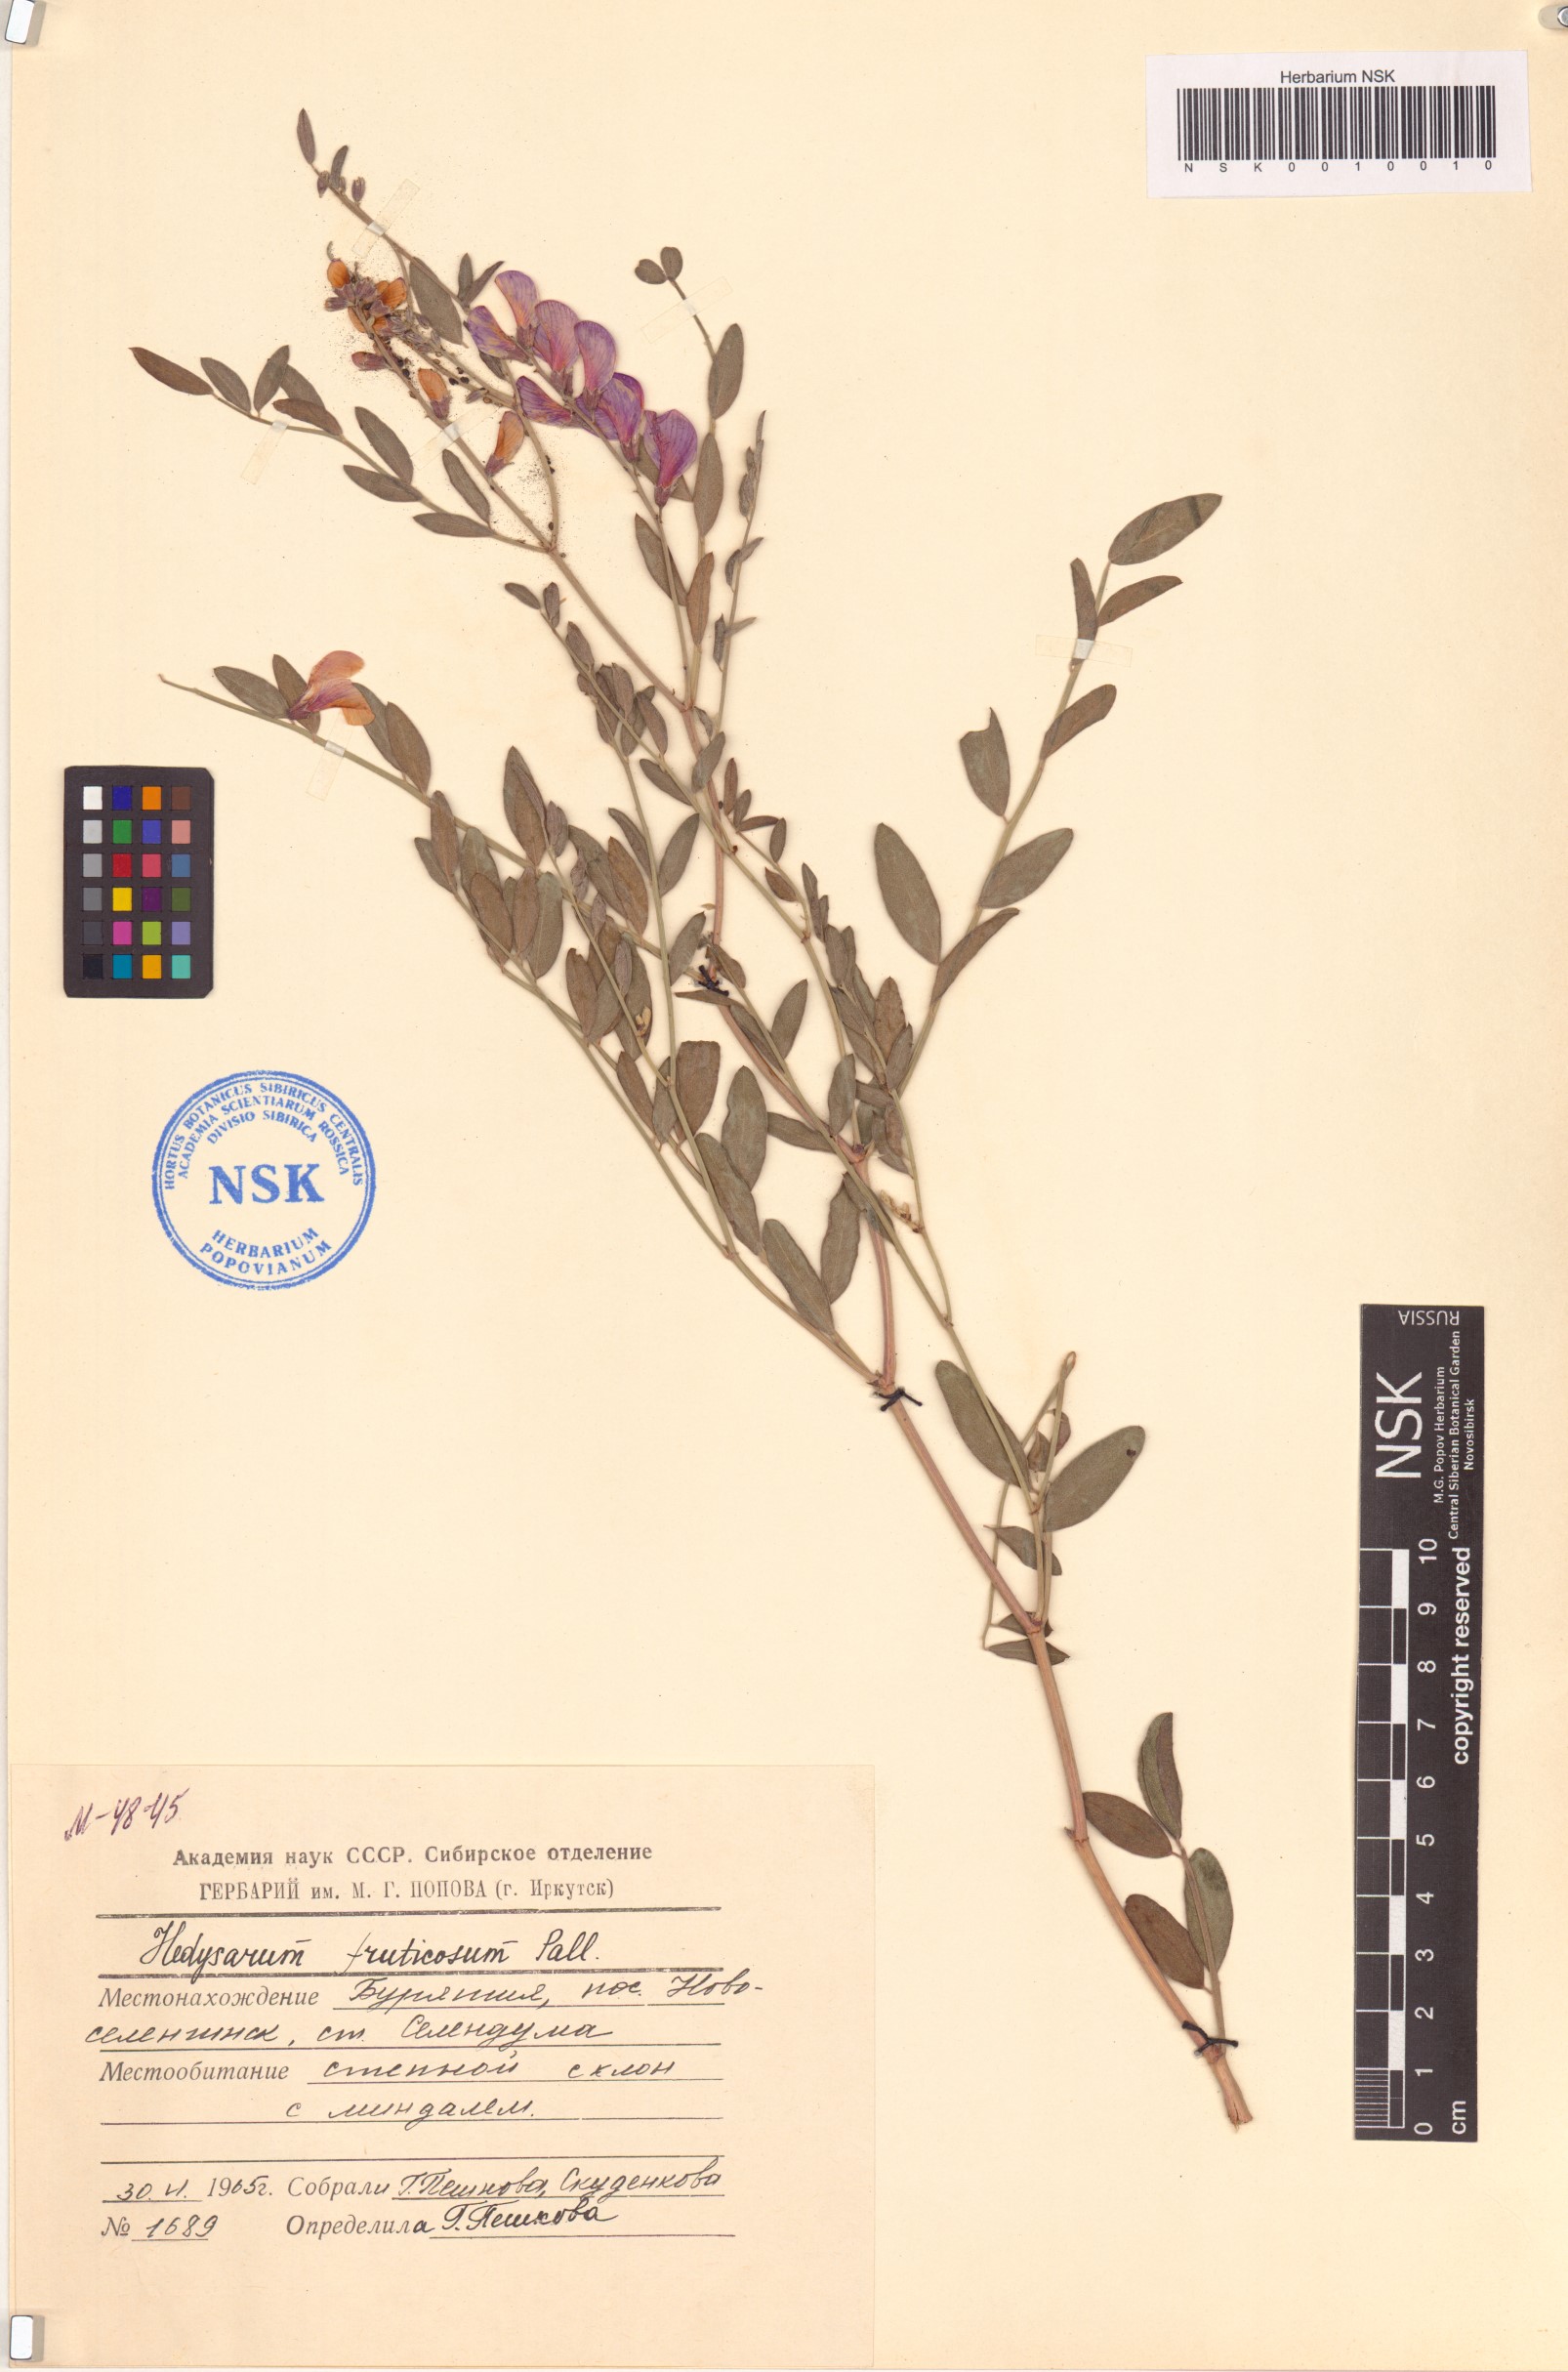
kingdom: Plantae
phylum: Tracheophyta
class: Magnoliopsida
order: Fabales
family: Fabaceae
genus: Corethrodendron
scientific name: Corethrodendron fruticosum
